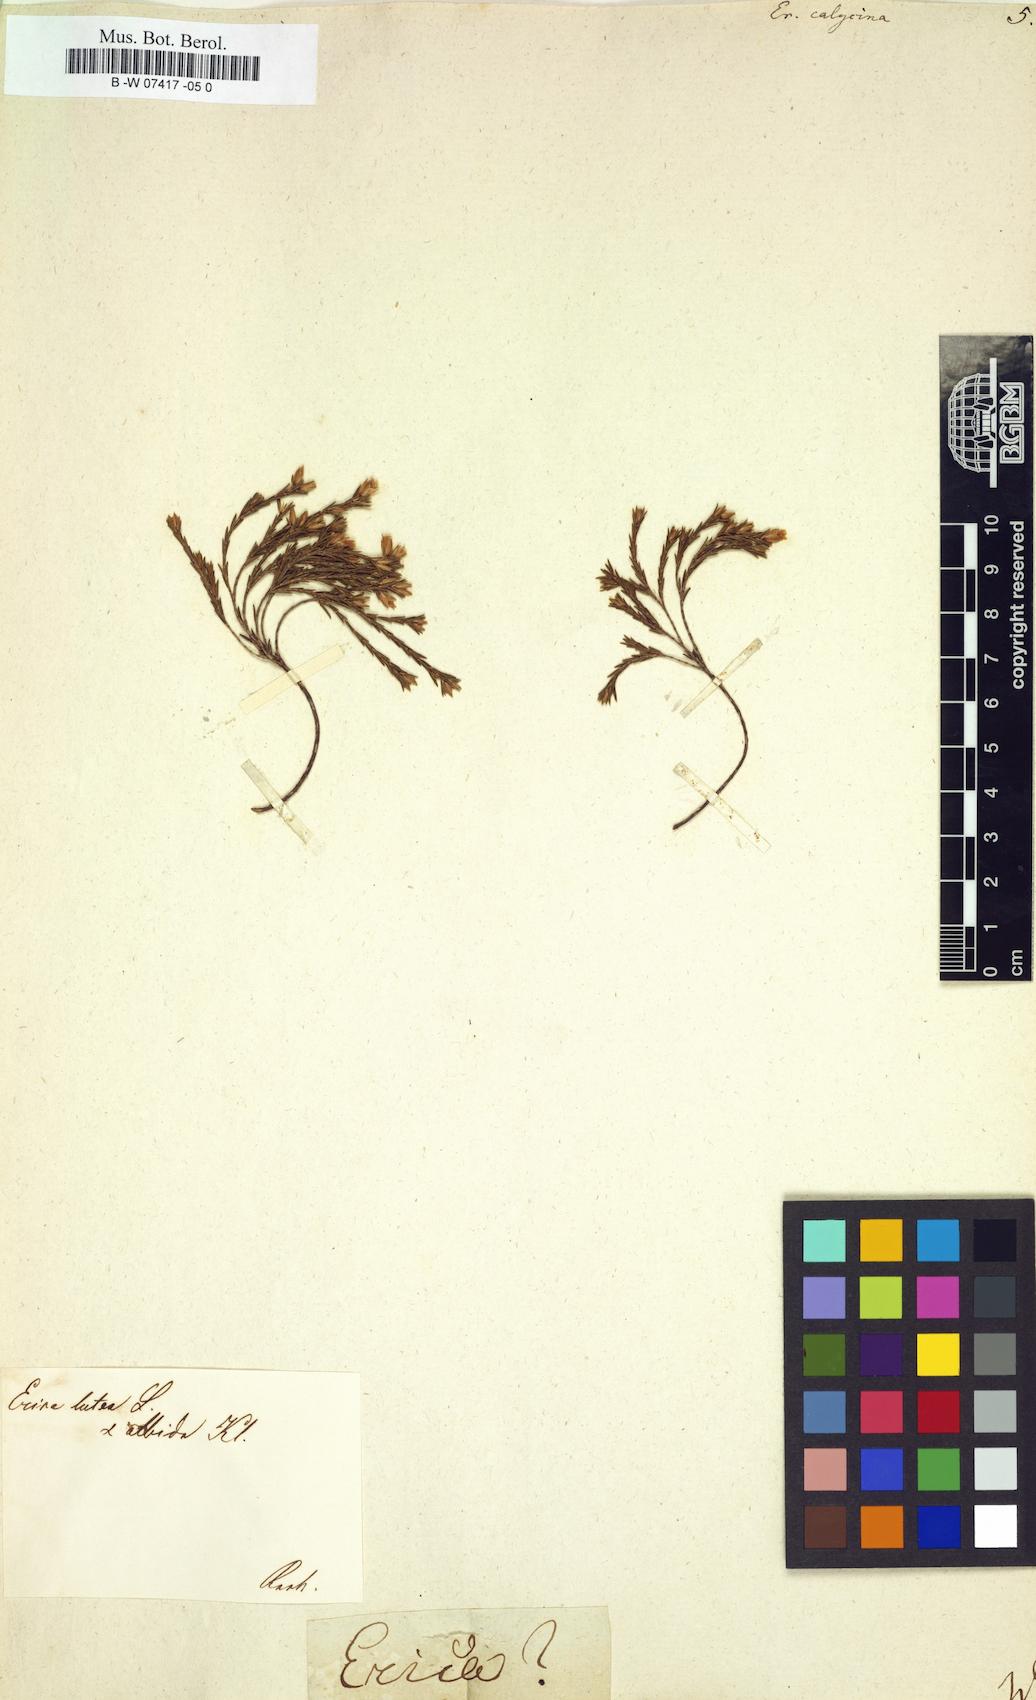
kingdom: Plantae
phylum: Tracheophyta
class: Magnoliopsida
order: Ericales
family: Ericaceae
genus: Erica
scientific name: Erica corifolia
